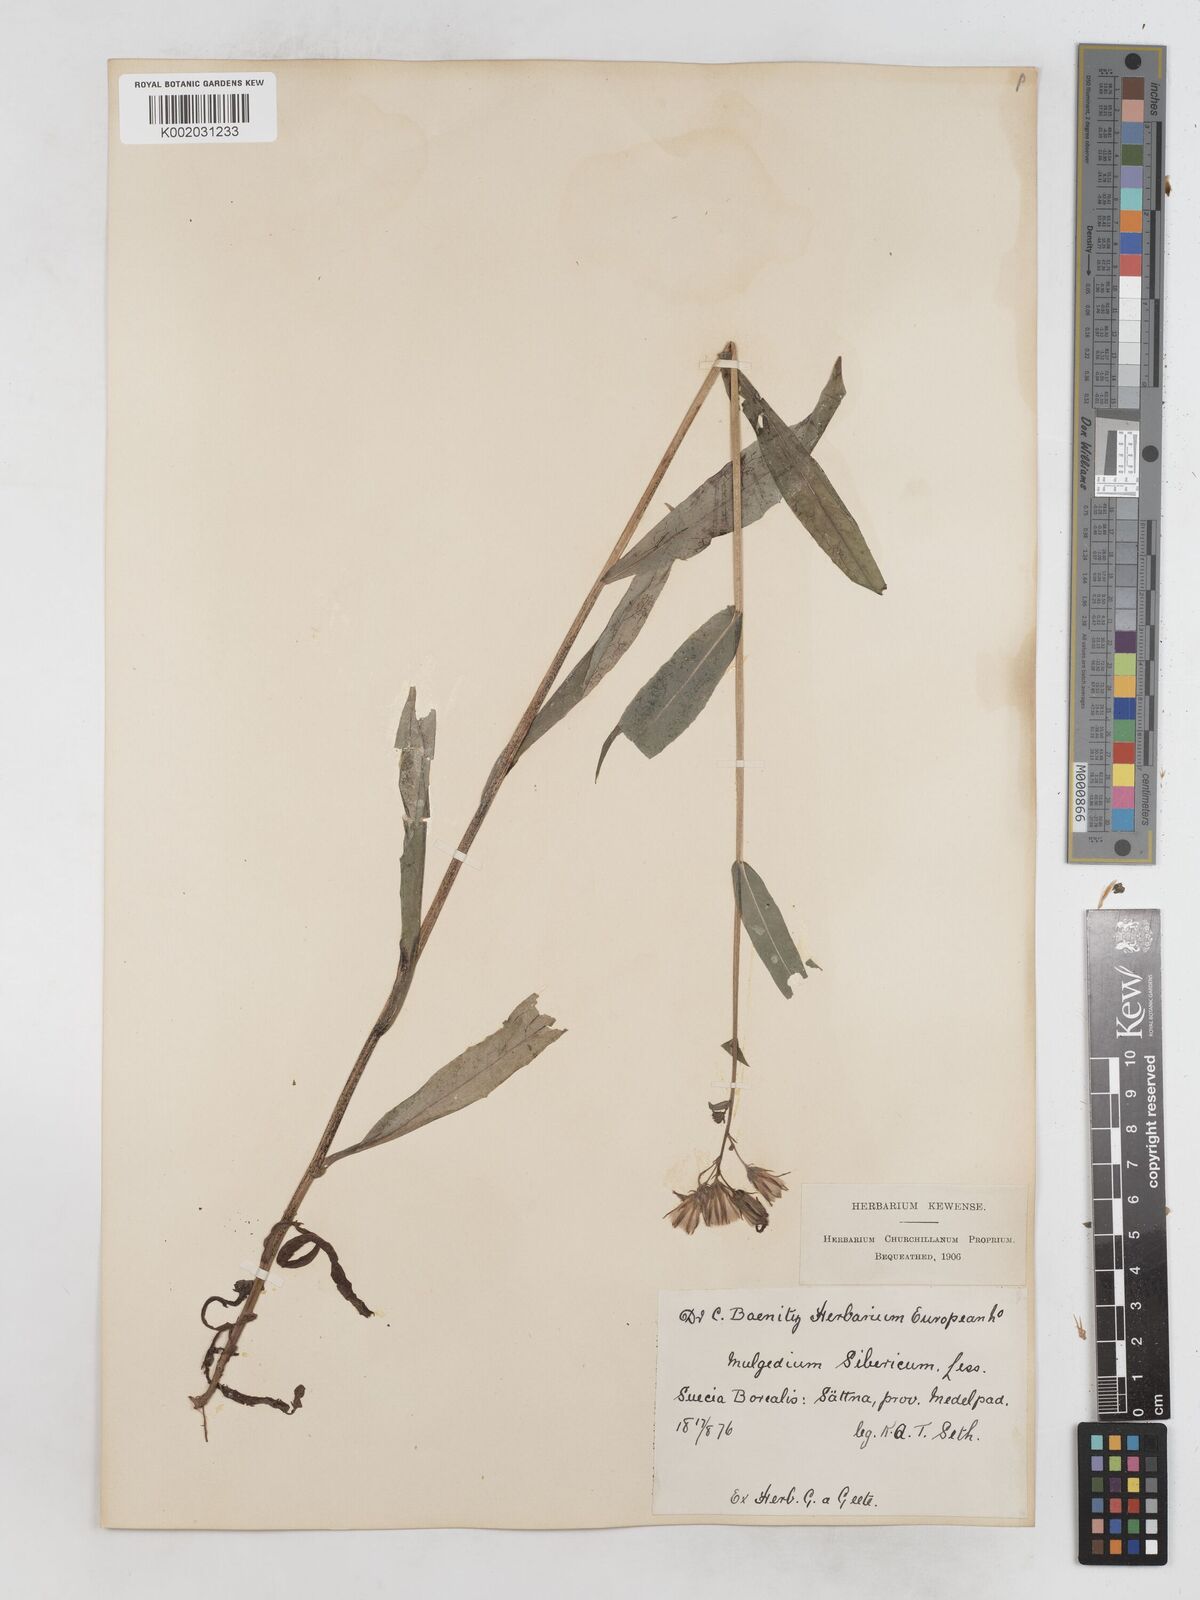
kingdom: Plantae
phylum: Tracheophyta
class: Magnoliopsida
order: Asterales
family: Asteraceae
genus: Lactuca
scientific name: Lactuca sibirica
